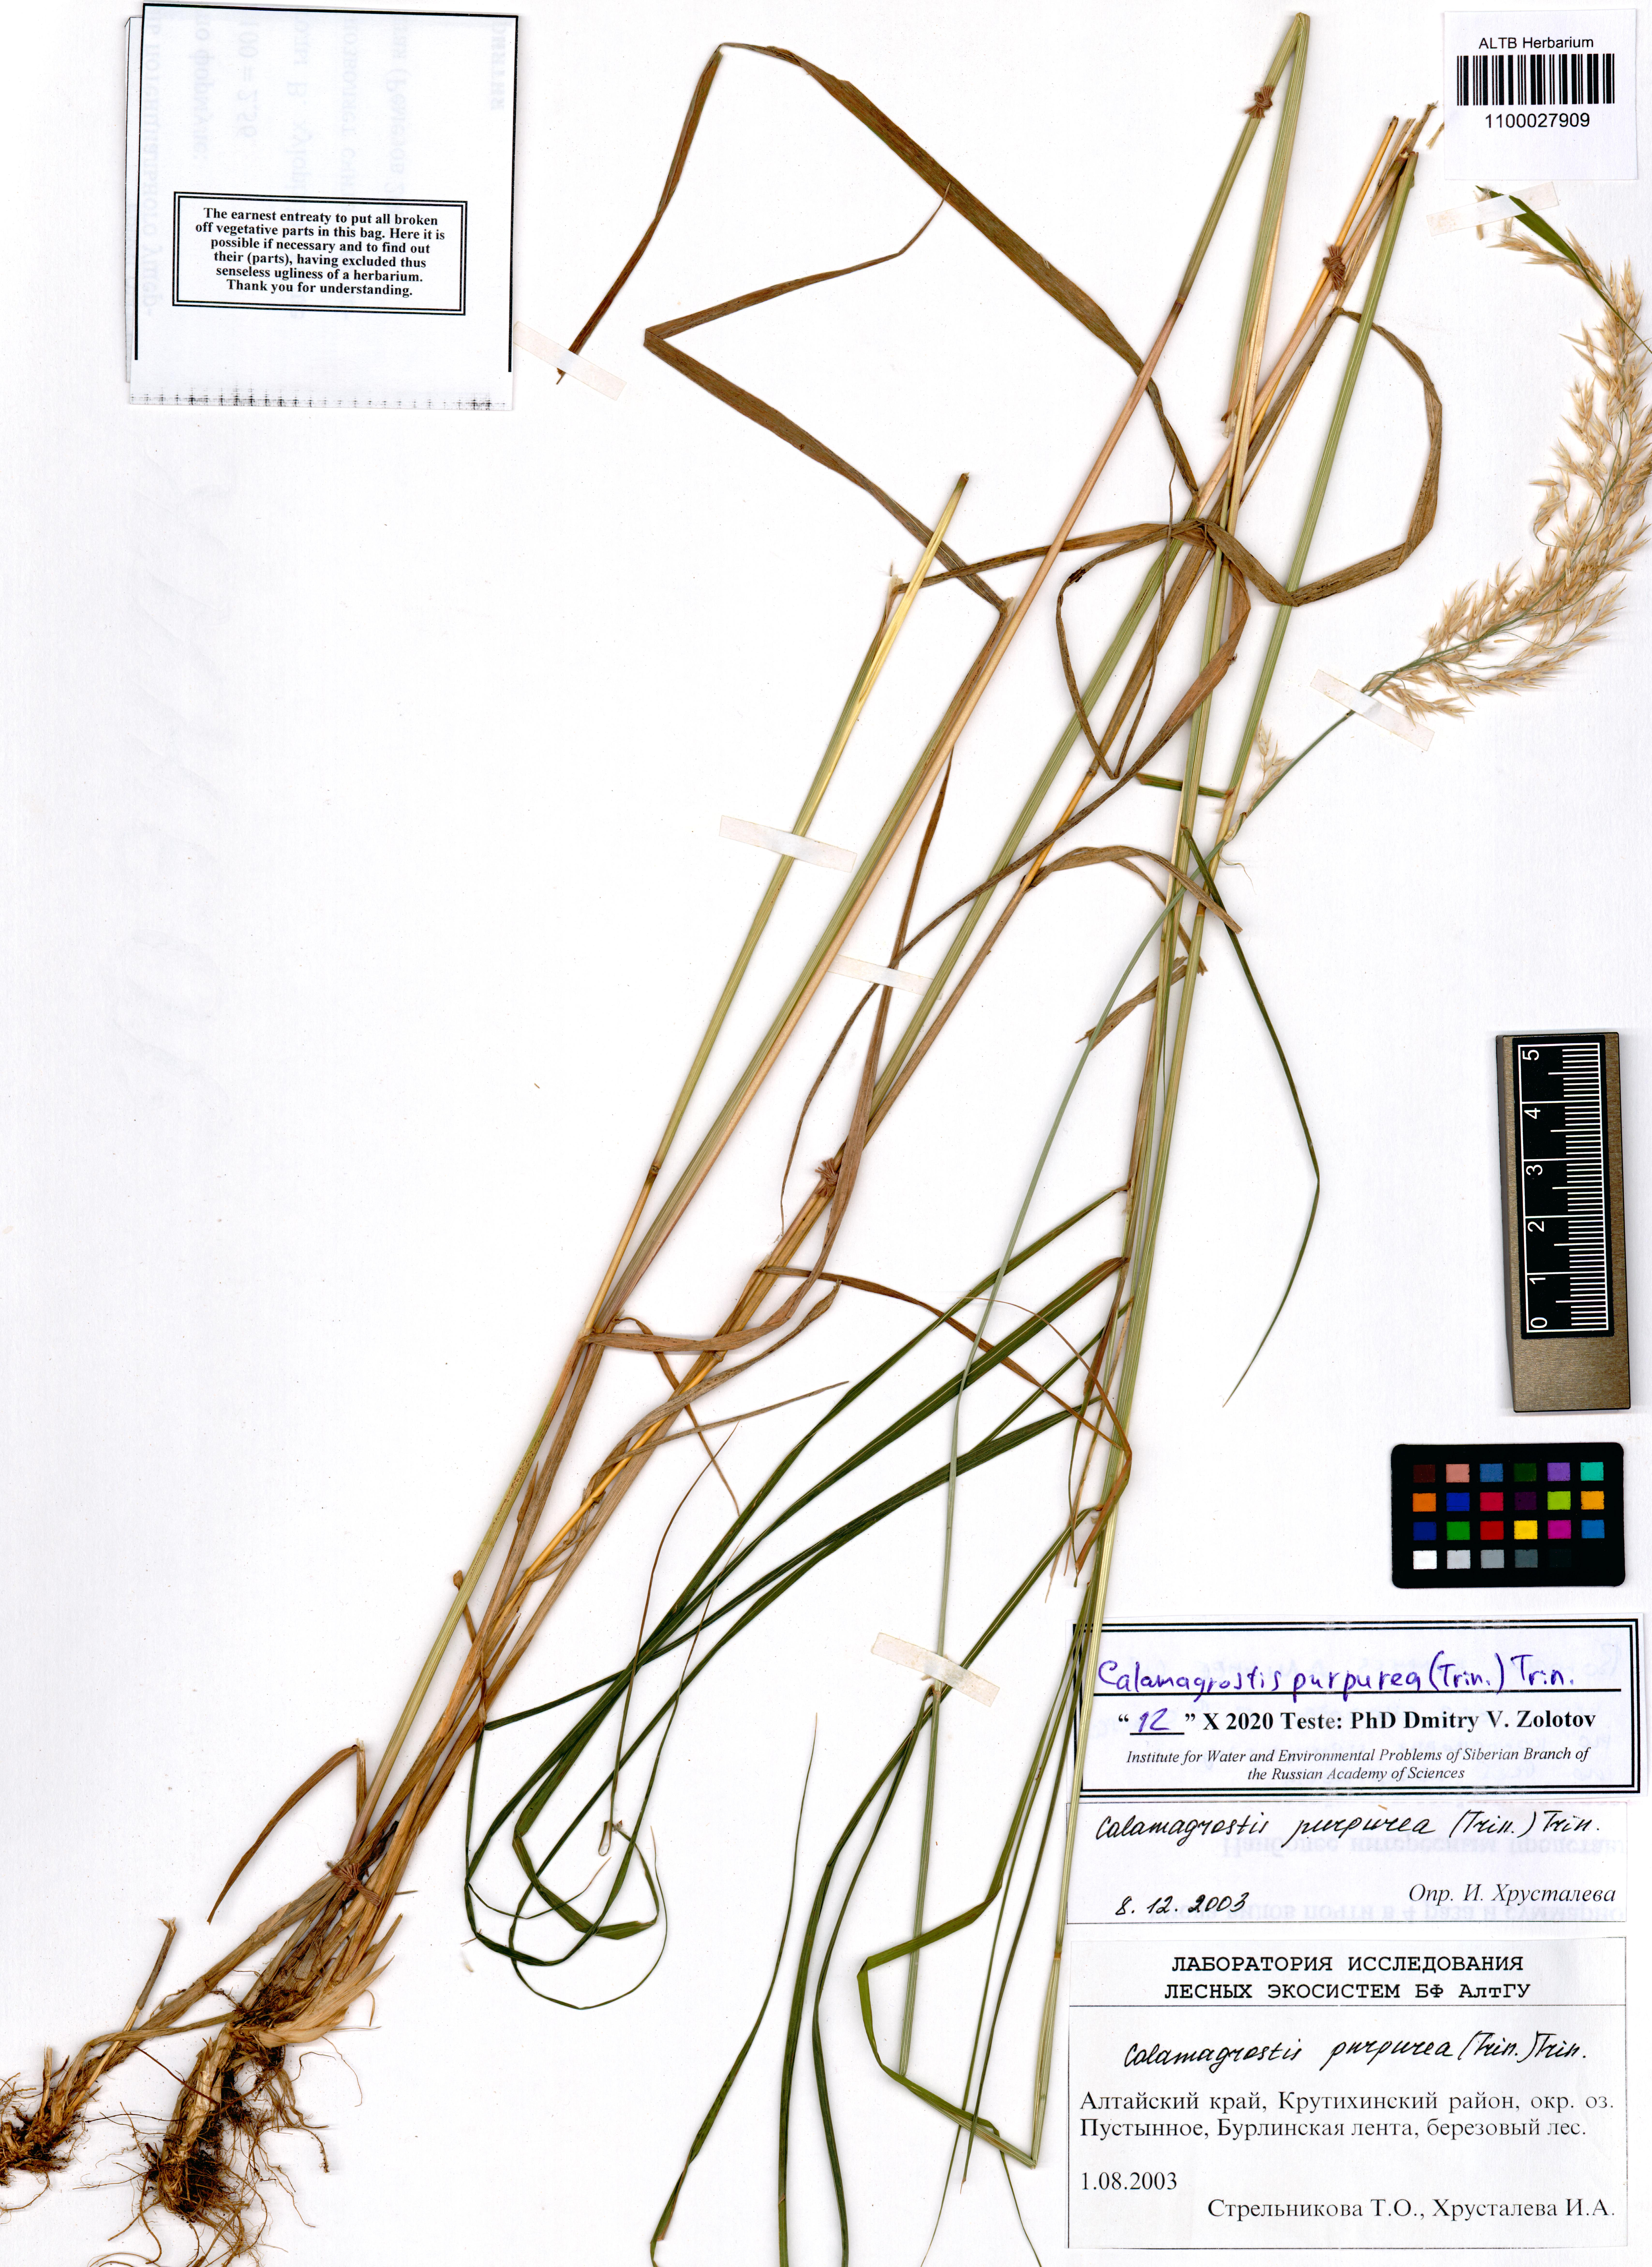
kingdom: Plantae
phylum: Tracheophyta
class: Liliopsida
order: Poales
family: Poaceae
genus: Calamagrostis
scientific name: Calamagrostis purpurea
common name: Scandinavian small-reed
